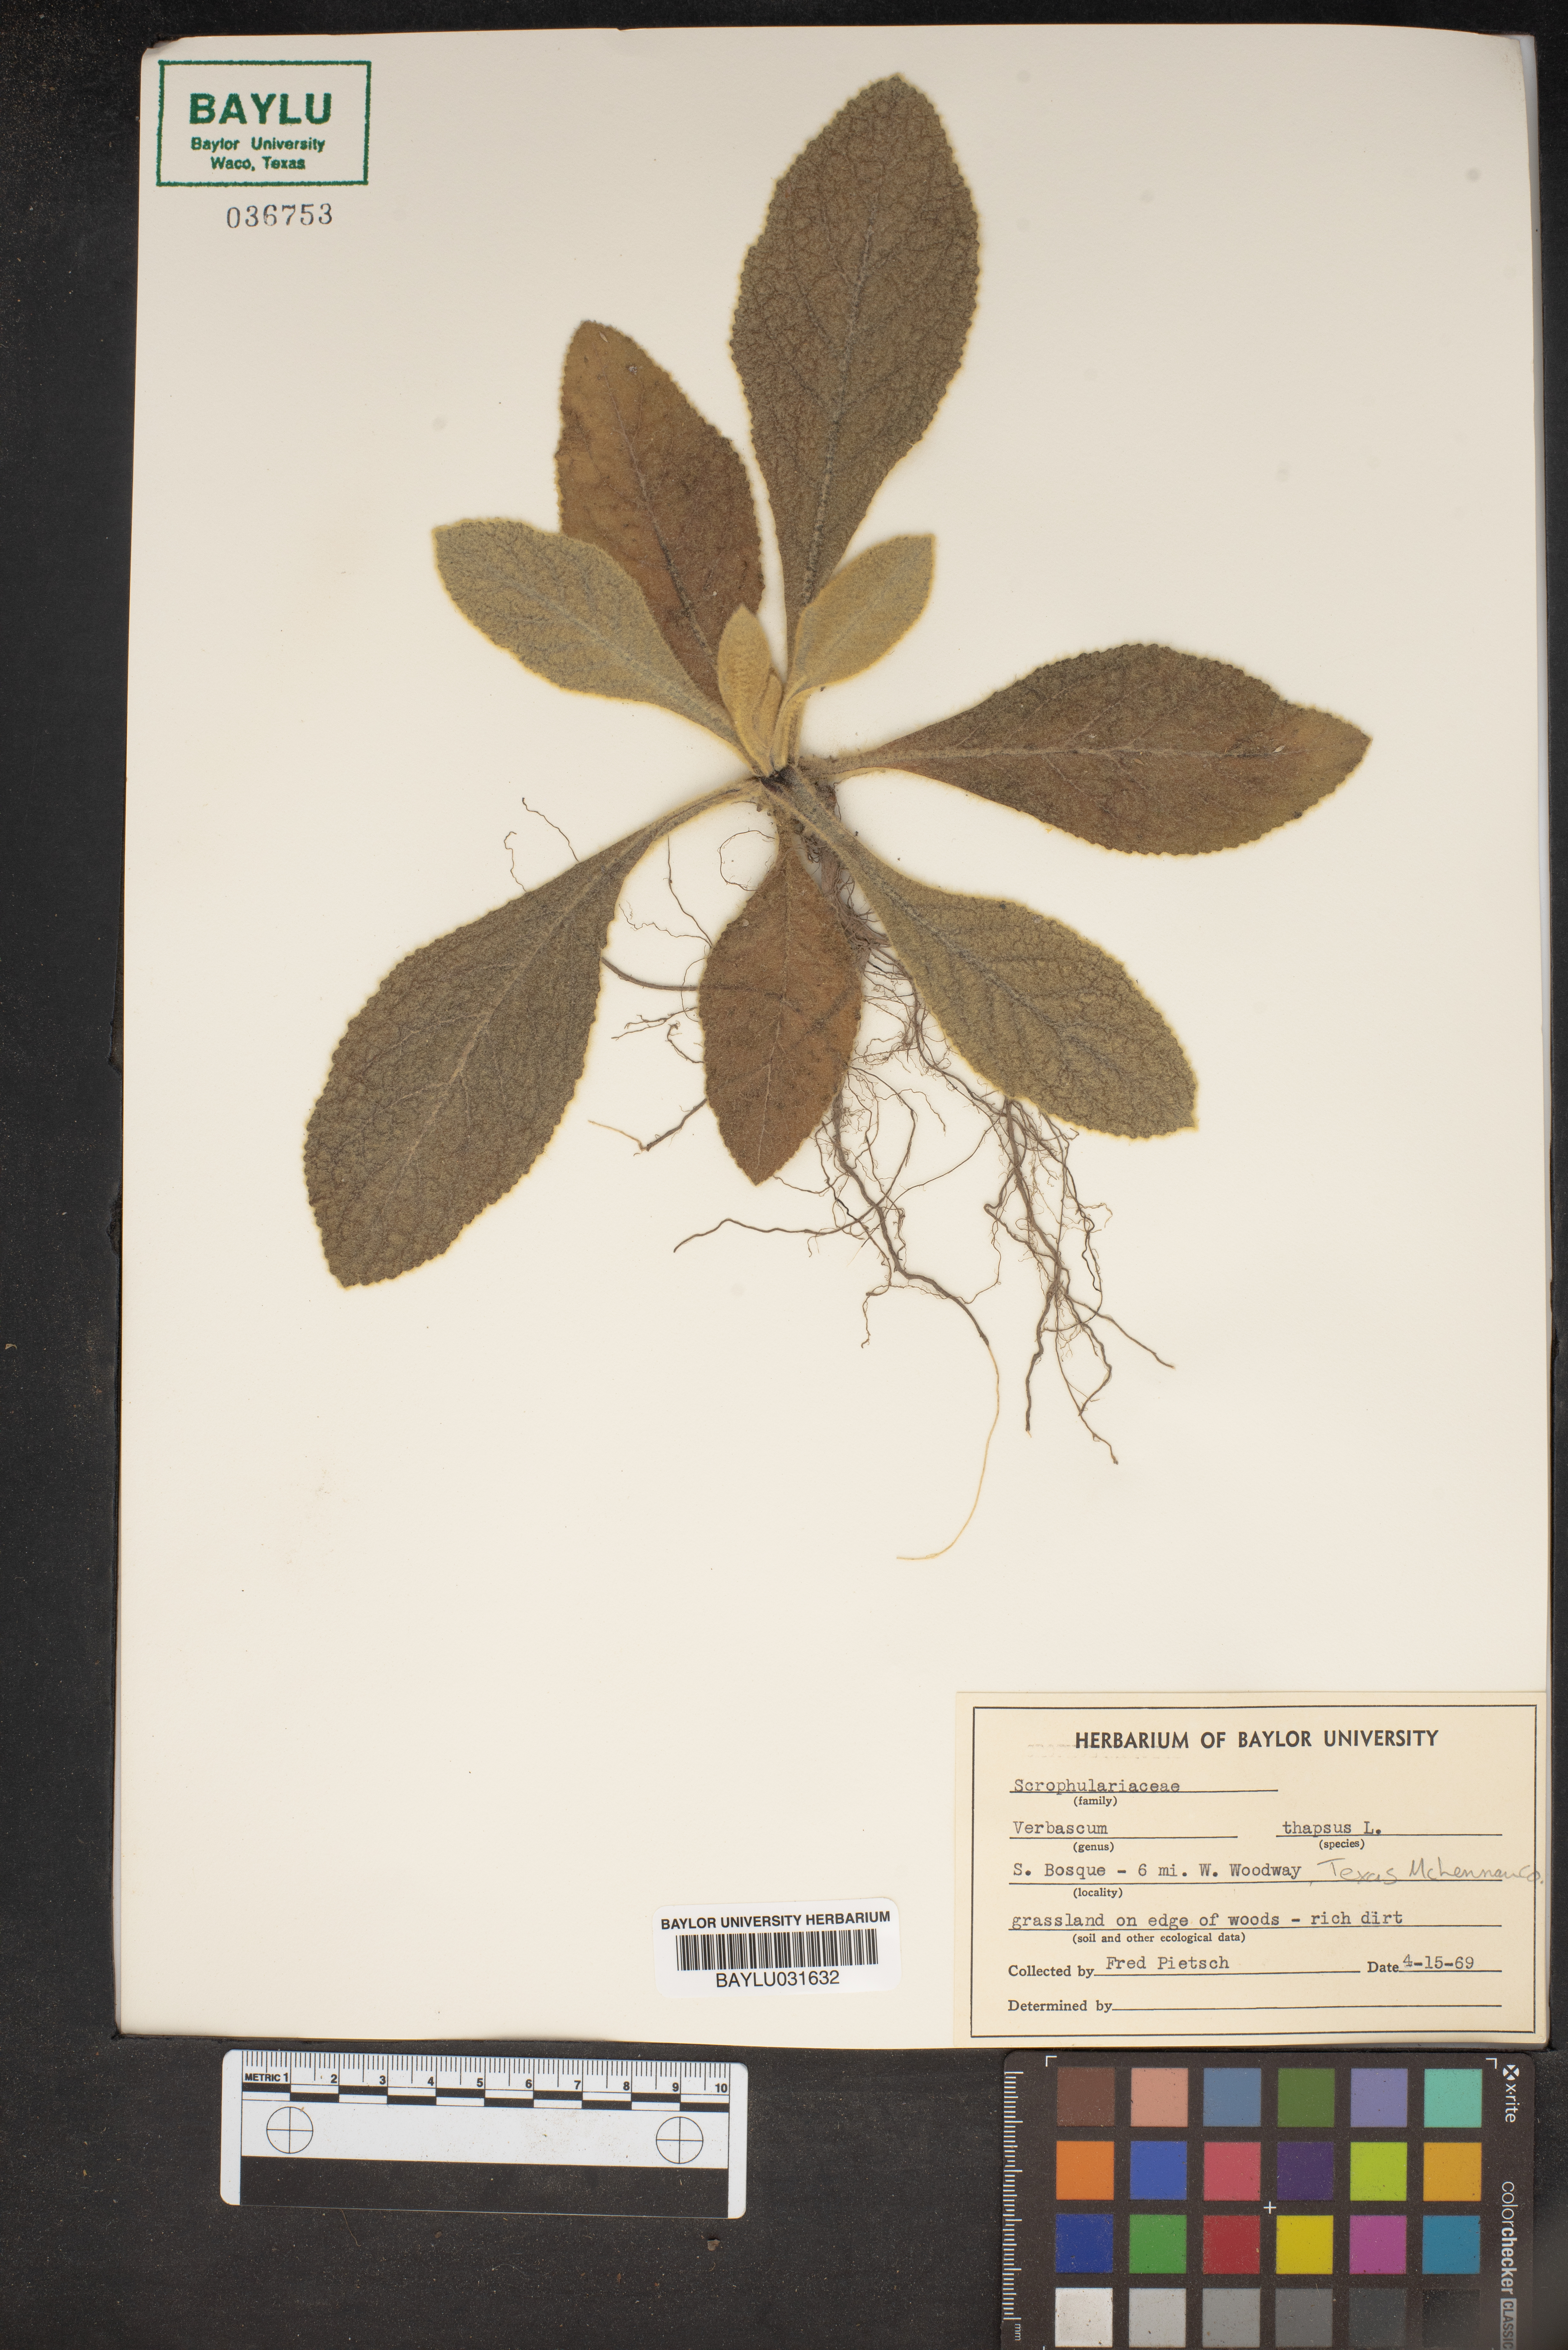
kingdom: Plantae
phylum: Tracheophyta
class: Magnoliopsida
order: Lamiales
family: Scrophulariaceae
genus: Verbascum
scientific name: Verbascum thapsus
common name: Common mullein
